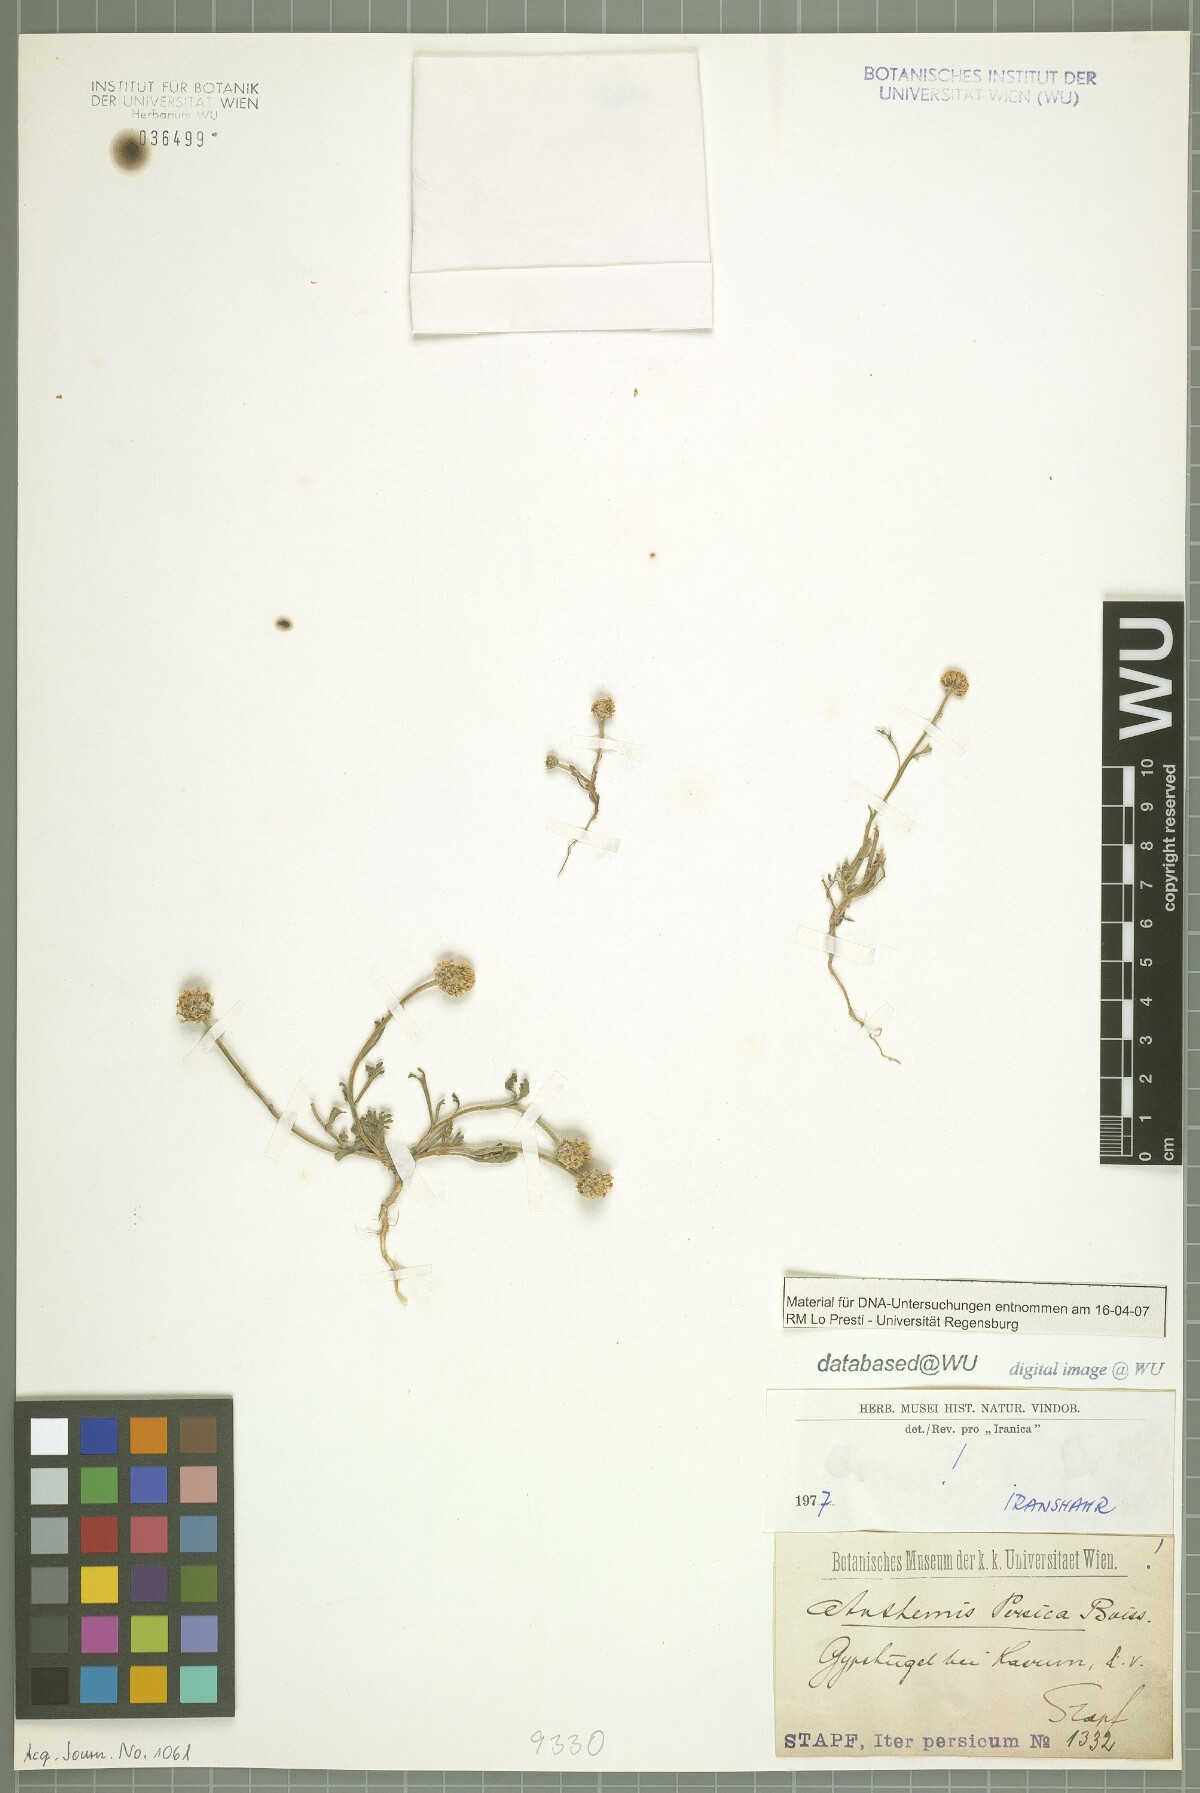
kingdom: Plantae
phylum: Tracheophyta
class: Magnoliopsida
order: Asterales
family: Asteraceae
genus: Anthemis
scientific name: Anthemis persica
